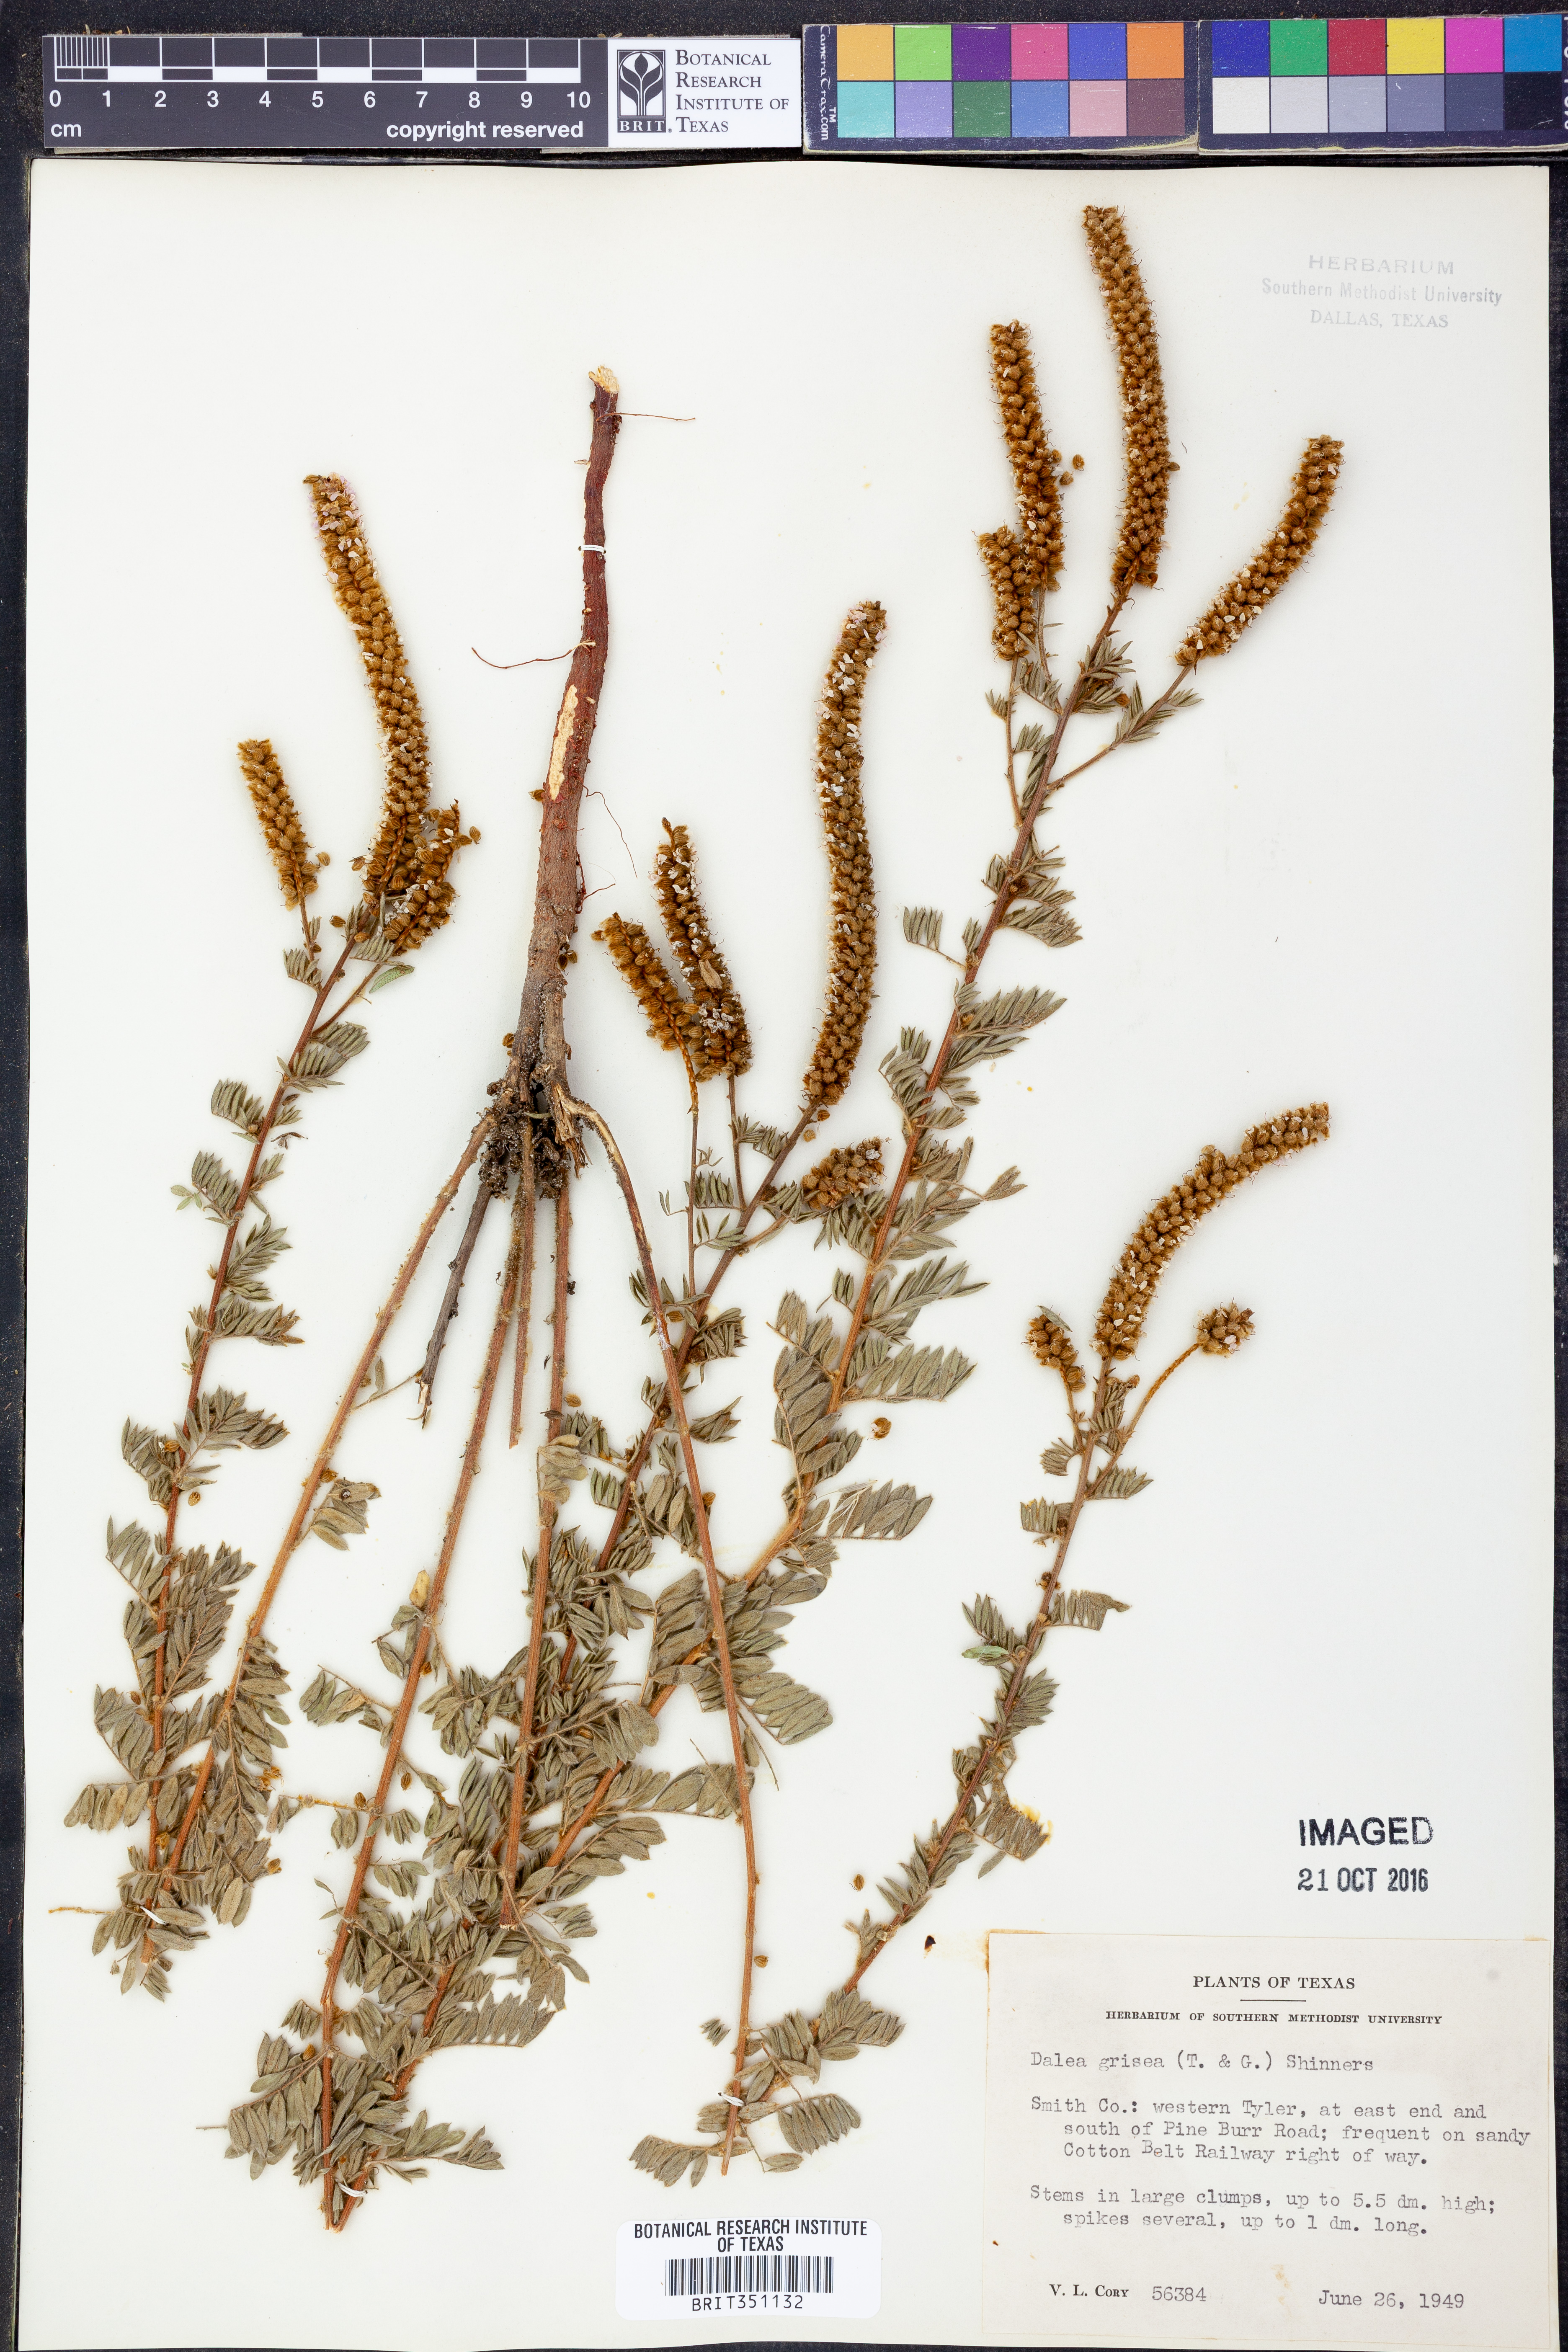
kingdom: Plantae
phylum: Tracheophyta
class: Magnoliopsida
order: Fabales
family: Fabaceae
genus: Dalea
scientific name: Dalea villosa
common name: Silky prairie-clover
